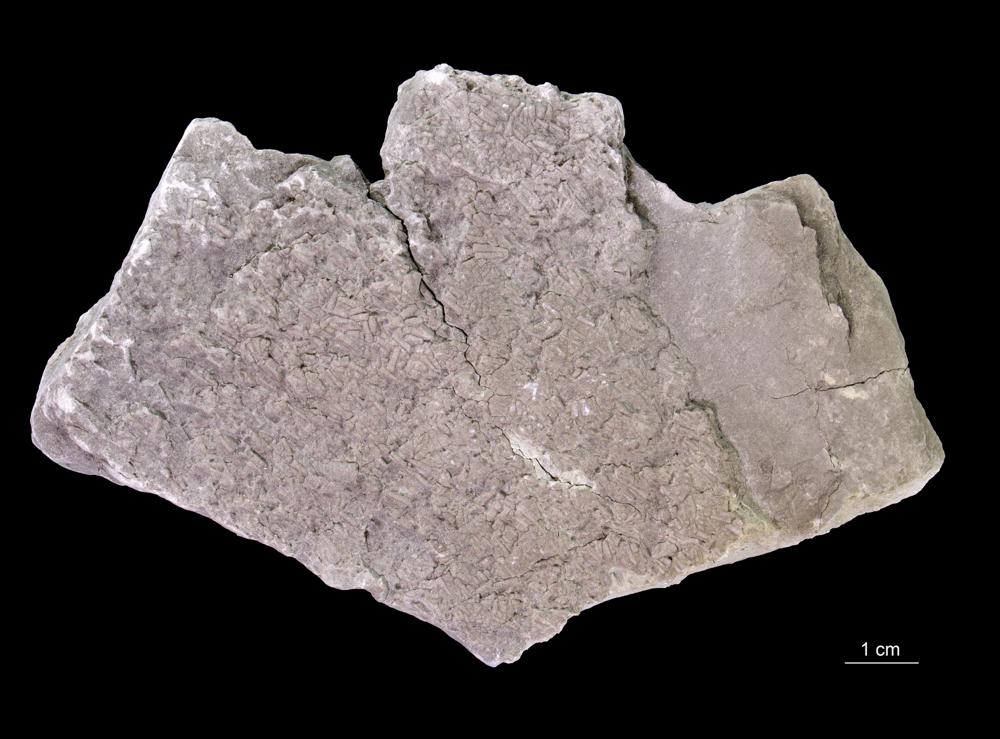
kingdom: Animalia
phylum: Annelida
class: Polychaeta
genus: Volborthella
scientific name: Volborthella tenuis
